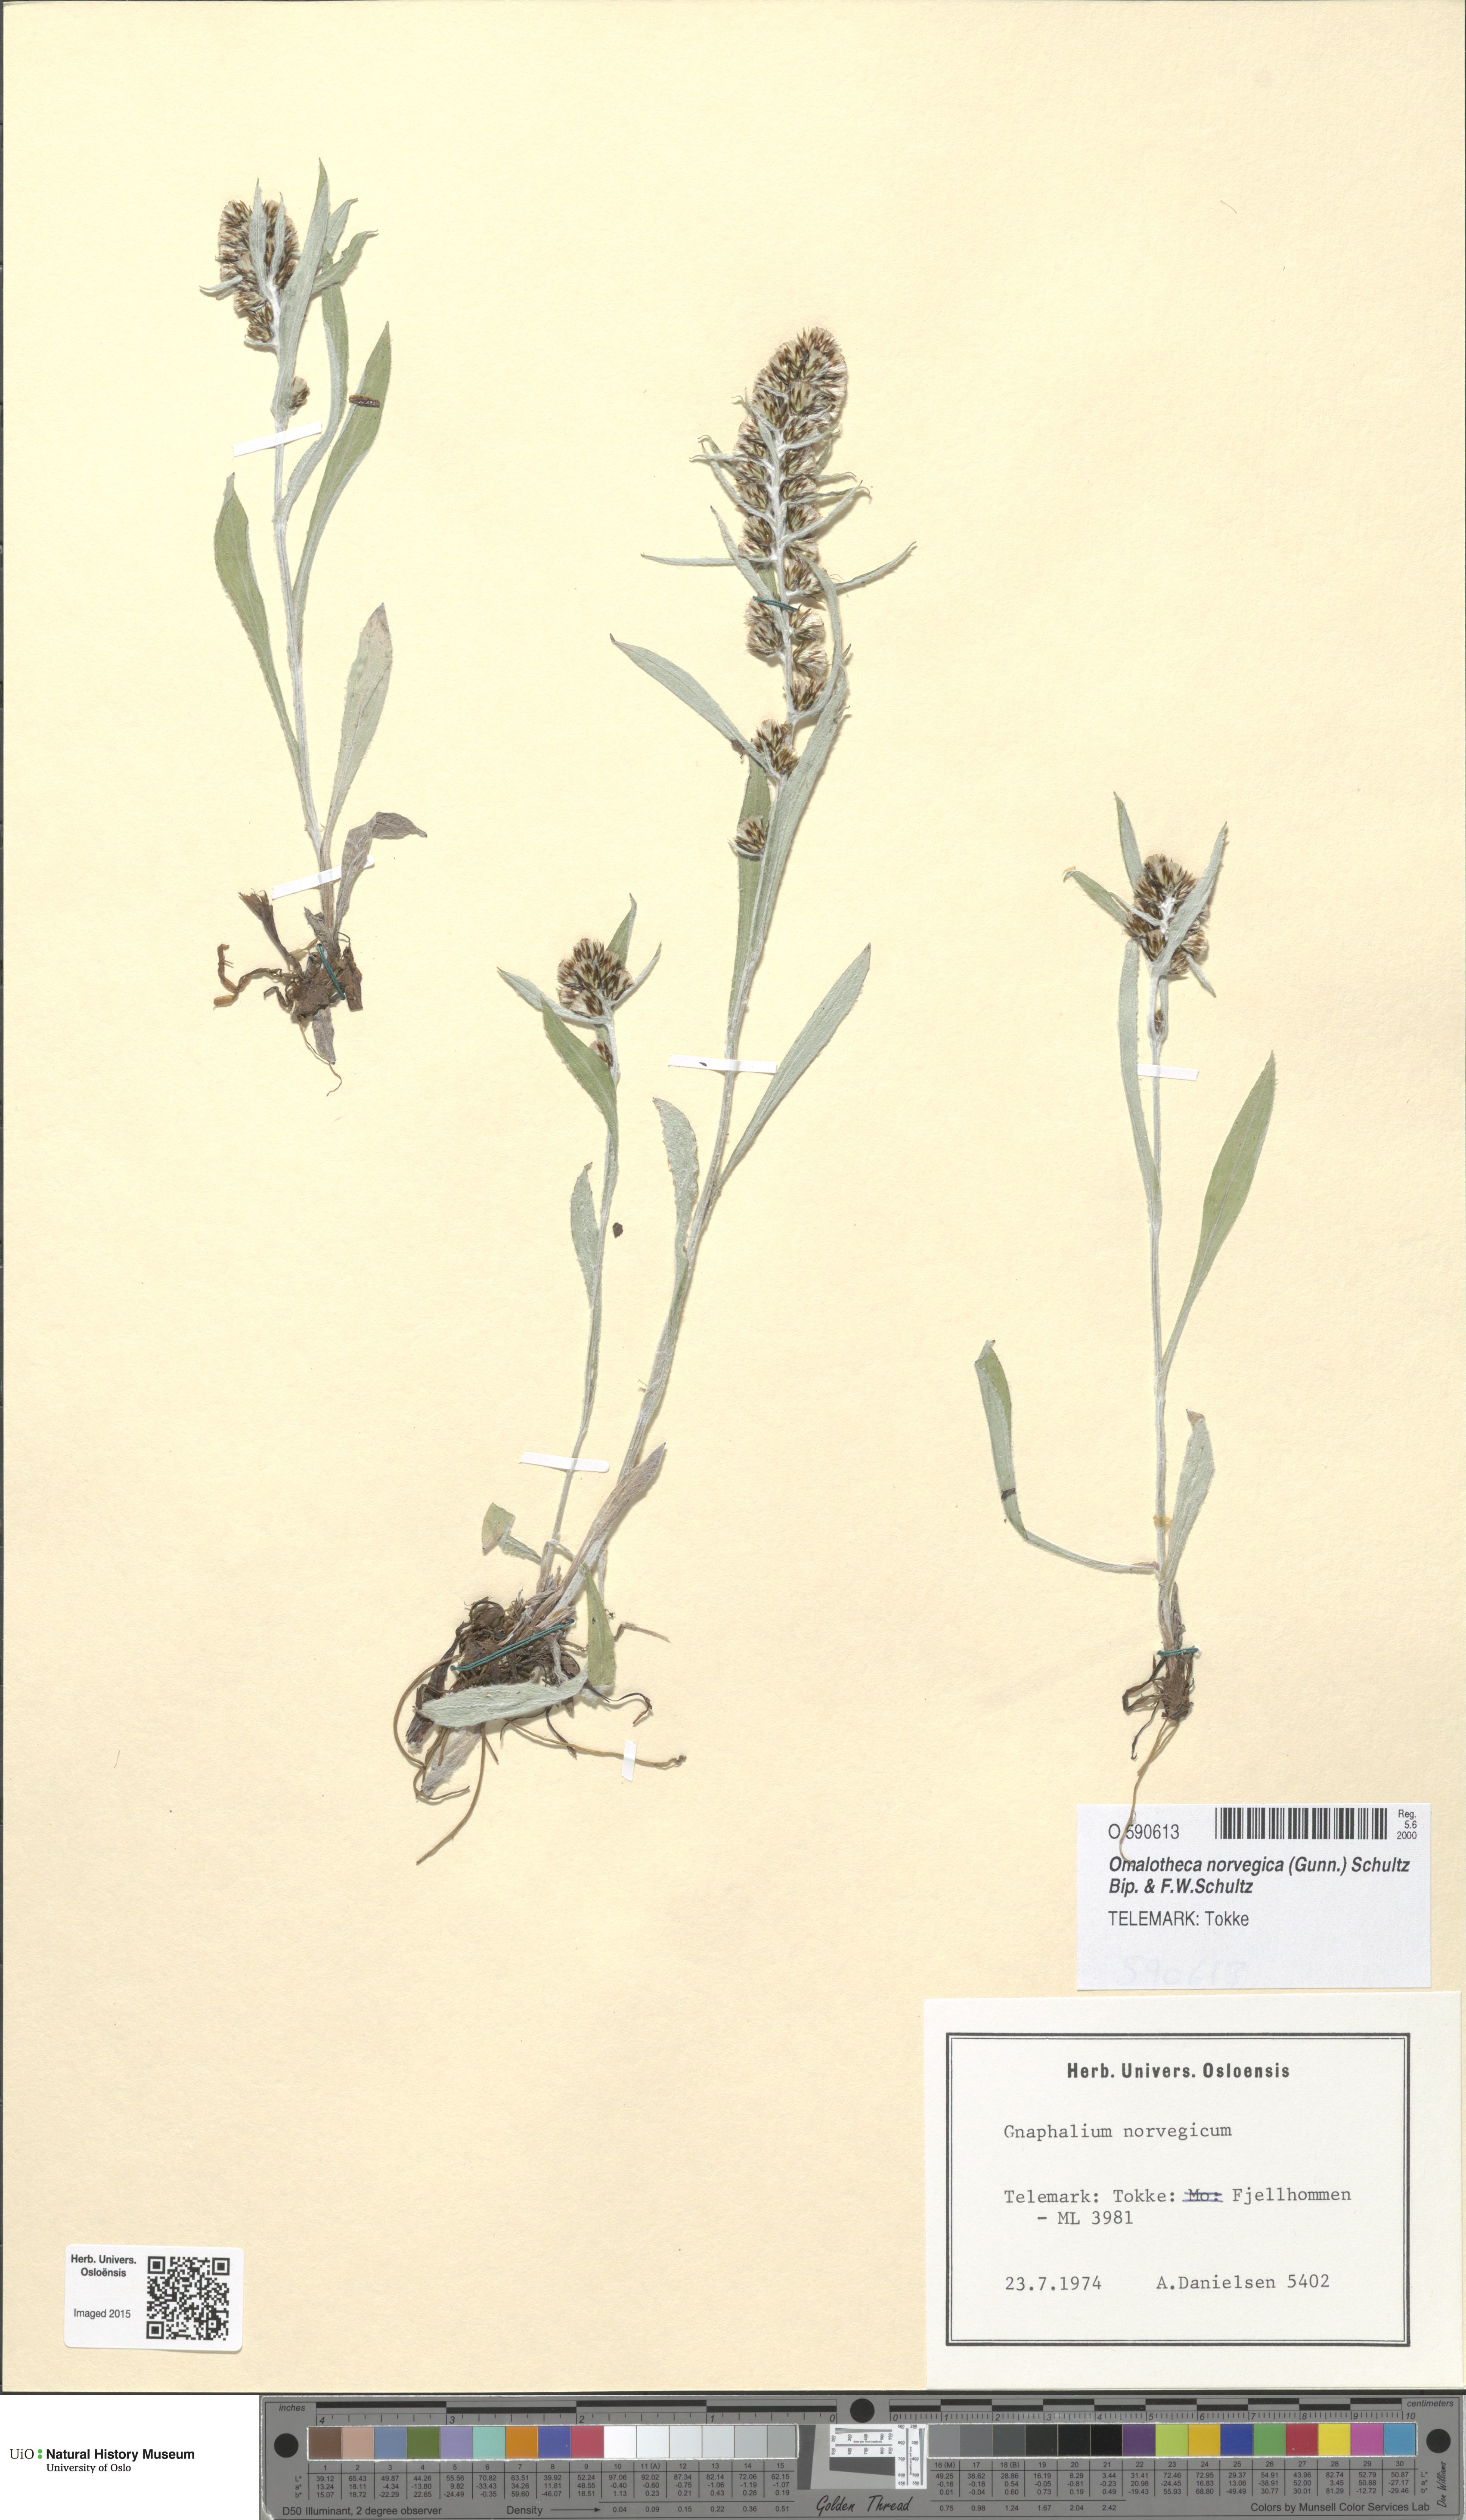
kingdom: Plantae
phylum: Tracheophyta
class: Magnoliopsida
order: Asterales
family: Asteraceae
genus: Omalotheca
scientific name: Omalotheca norvegica
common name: Norwegian arctic-cudweed
